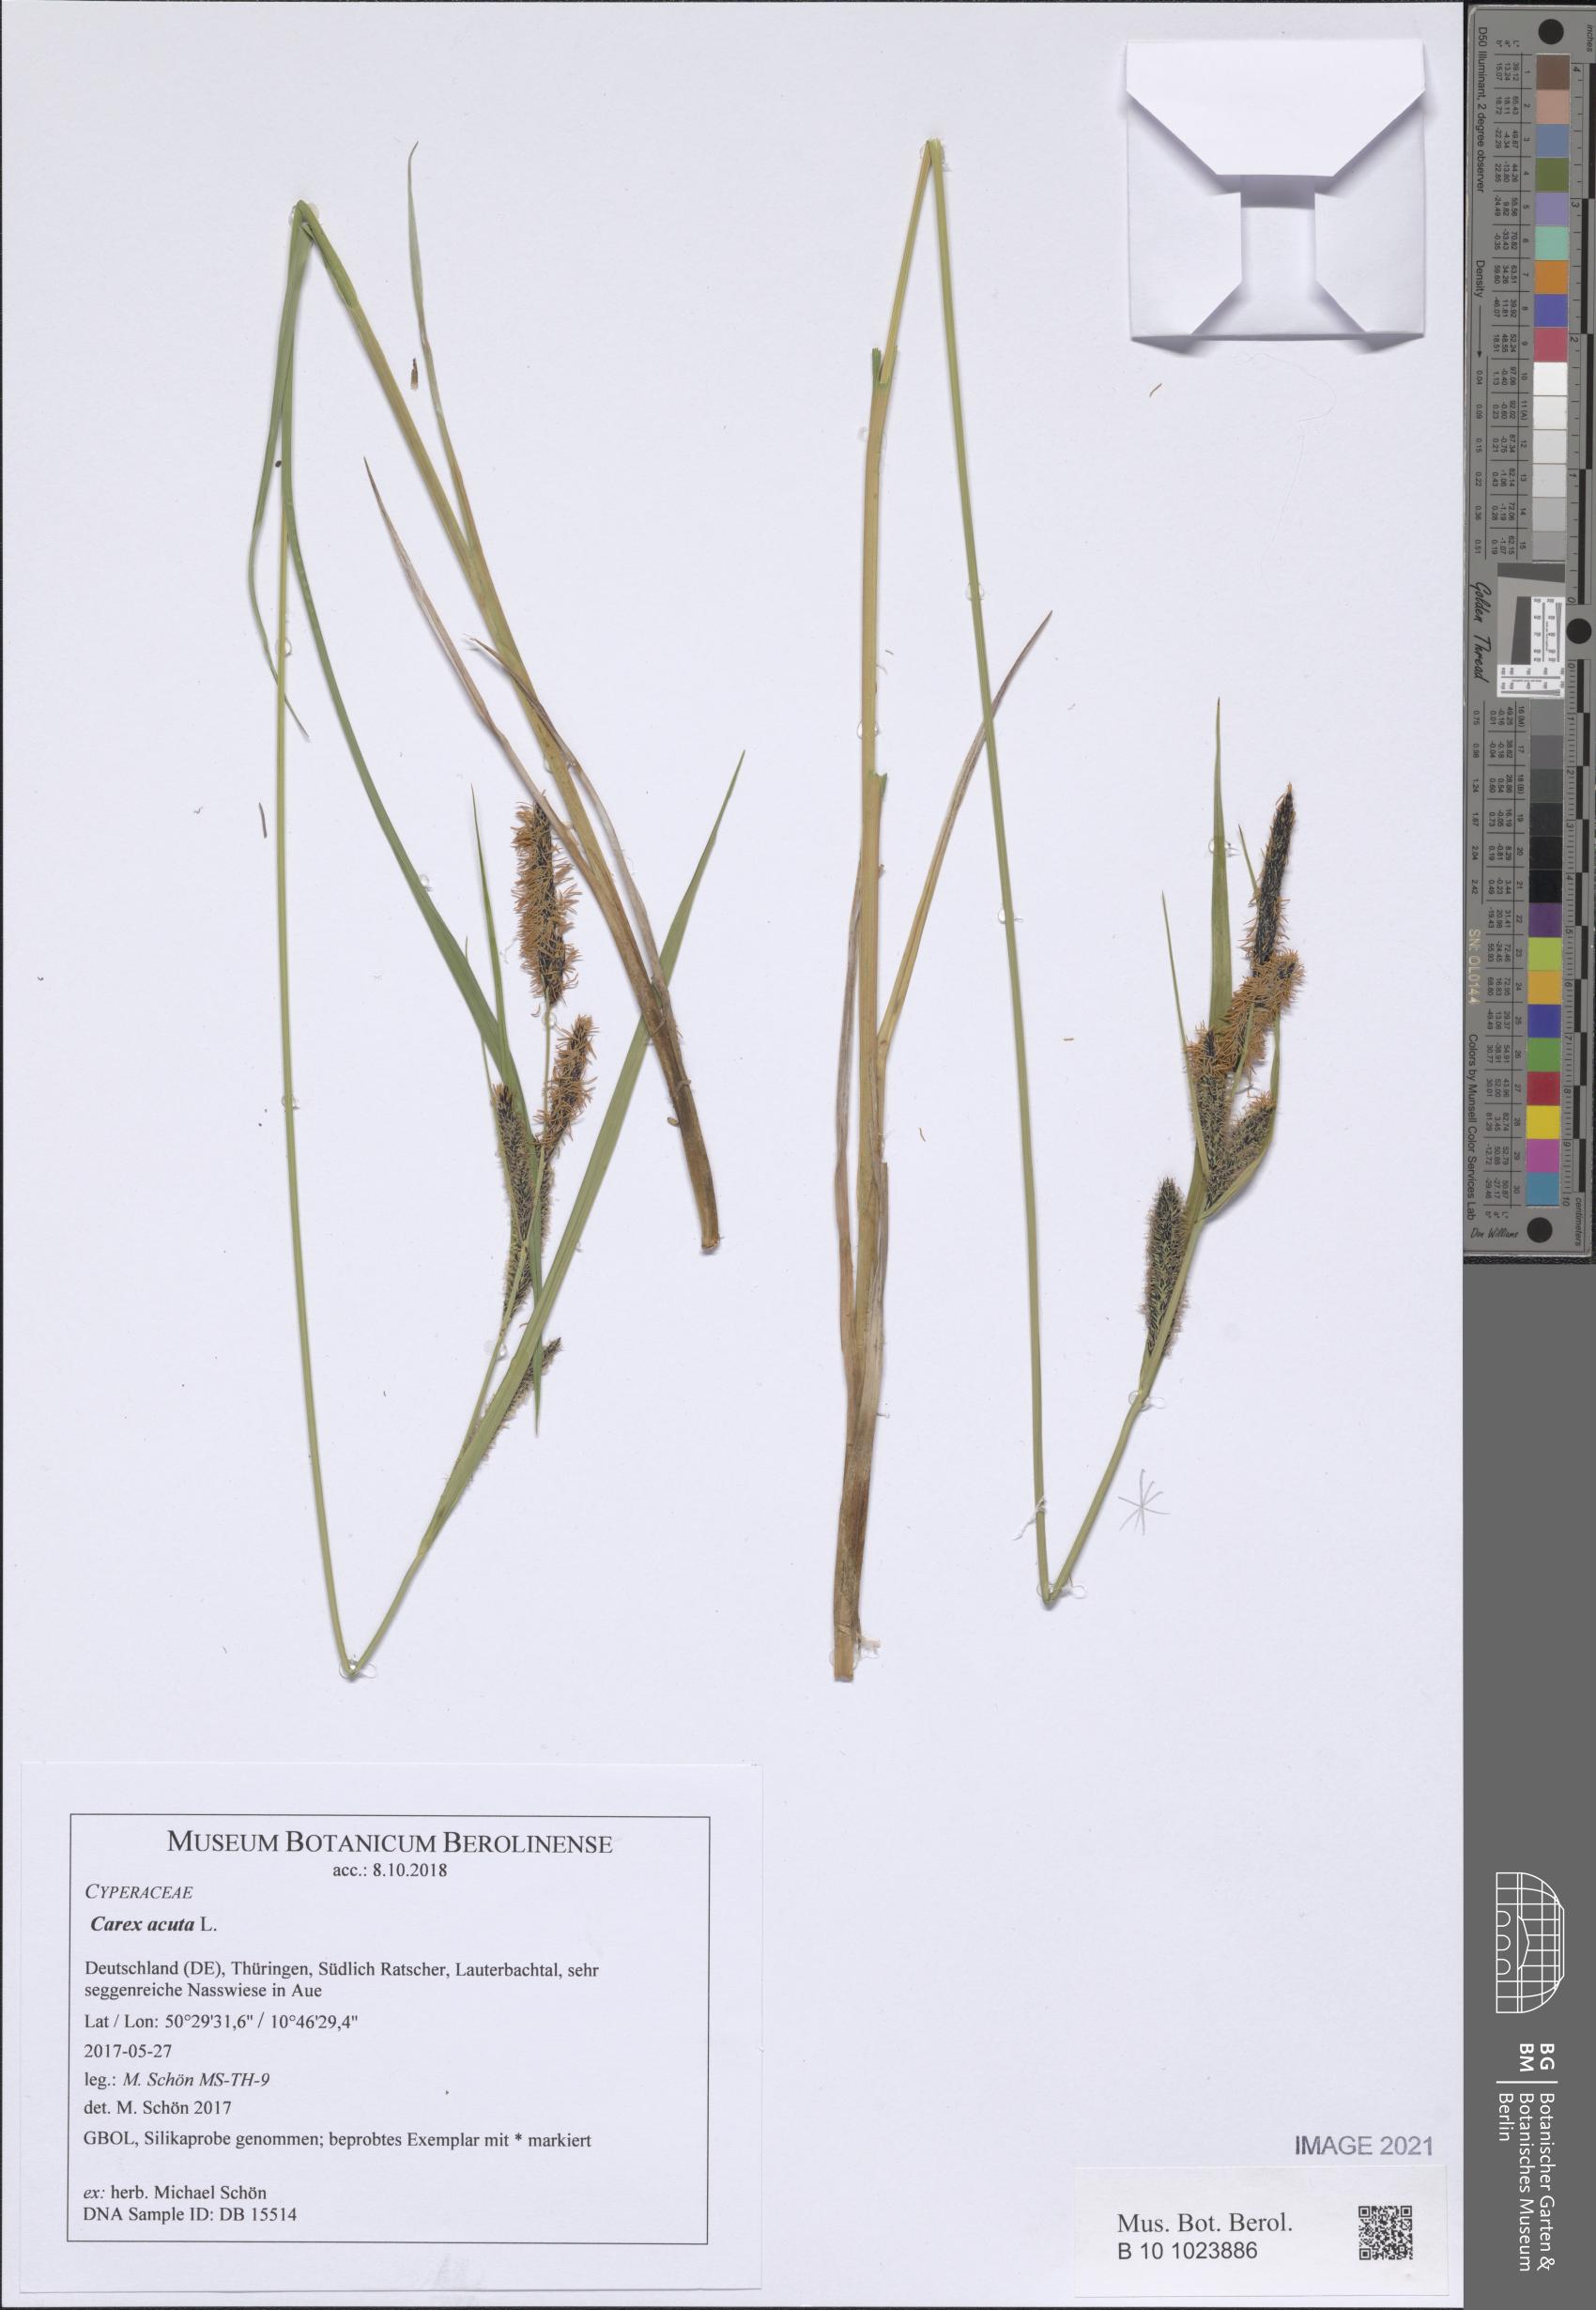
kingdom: Plantae
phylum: Tracheophyta
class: Liliopsida
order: Poales
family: Cyperaceae
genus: Carex
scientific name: Carex acuta
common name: Slender tufted-sedge
